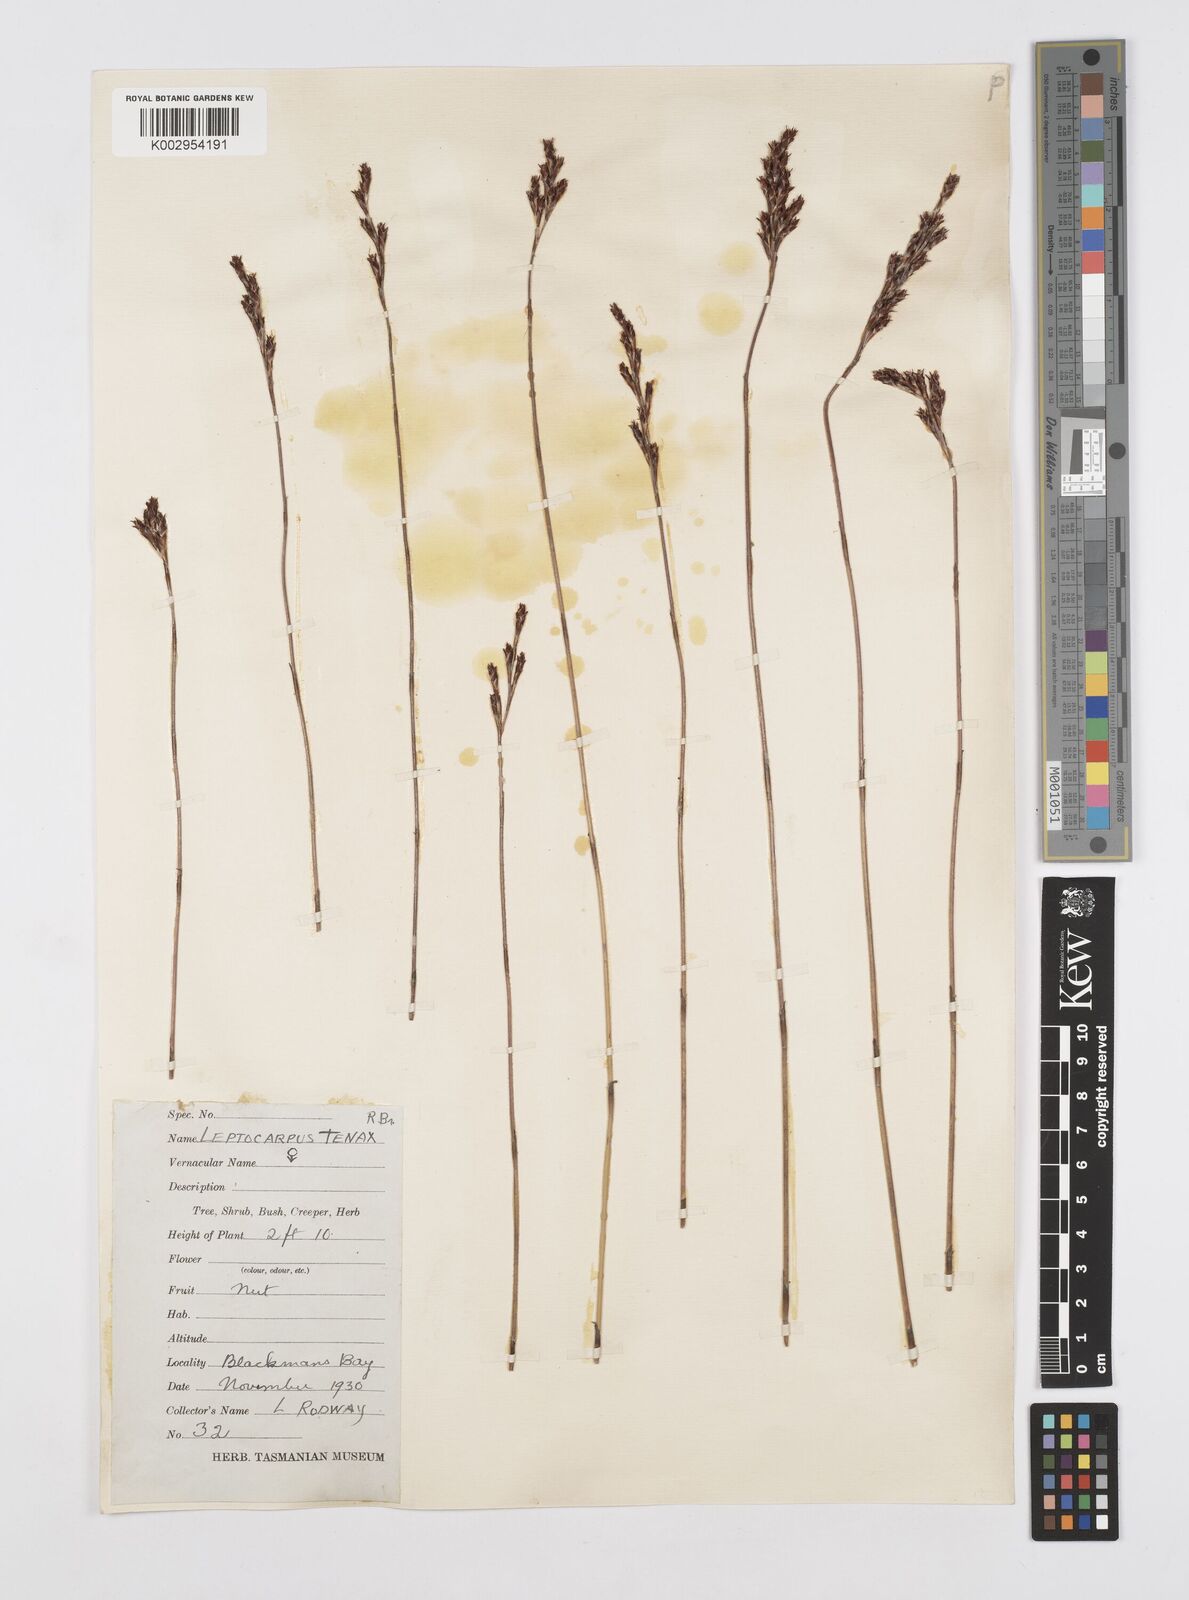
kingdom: Plantae
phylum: Tracheophyta
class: Liliopsida
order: Poales
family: Restionaceae
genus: Leptocarpus
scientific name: Leptocarpus tenax
